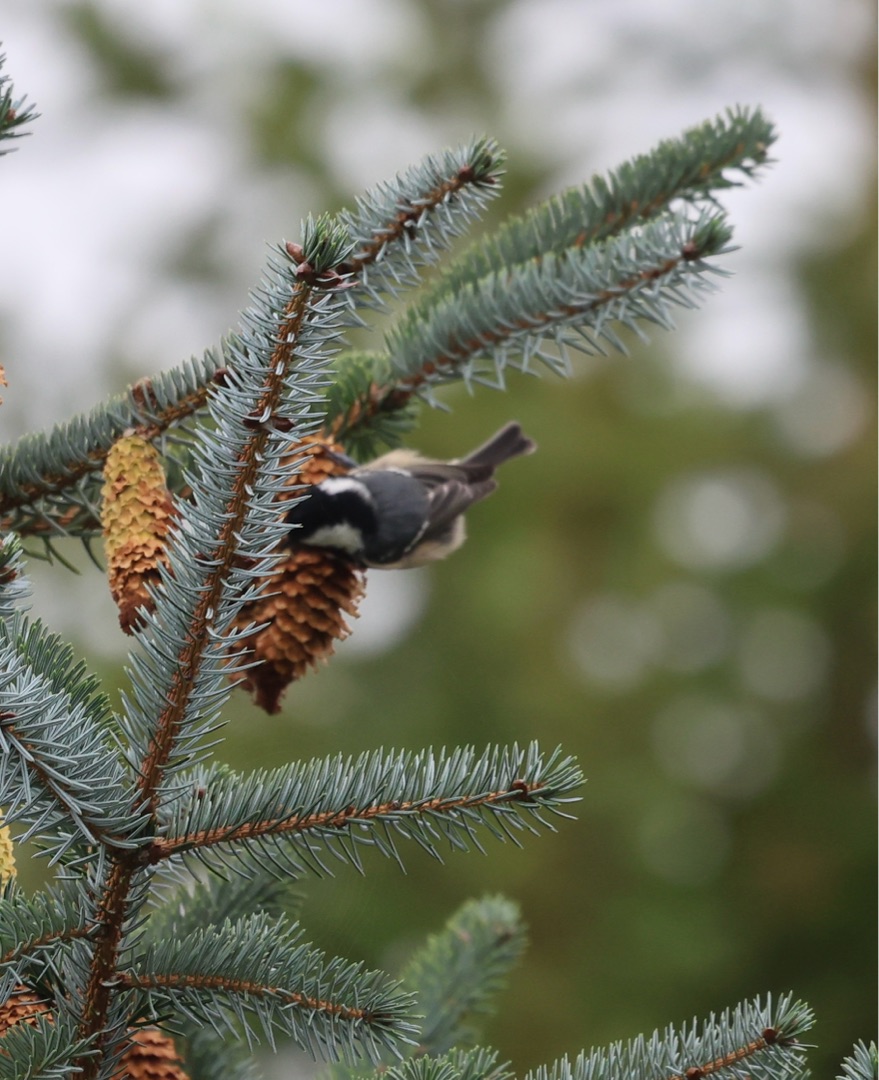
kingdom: Animalia
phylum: Chordata
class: Aves
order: Passeriformes
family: Paridae
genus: Periparus
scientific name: Periparus ater
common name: Sortmejse
